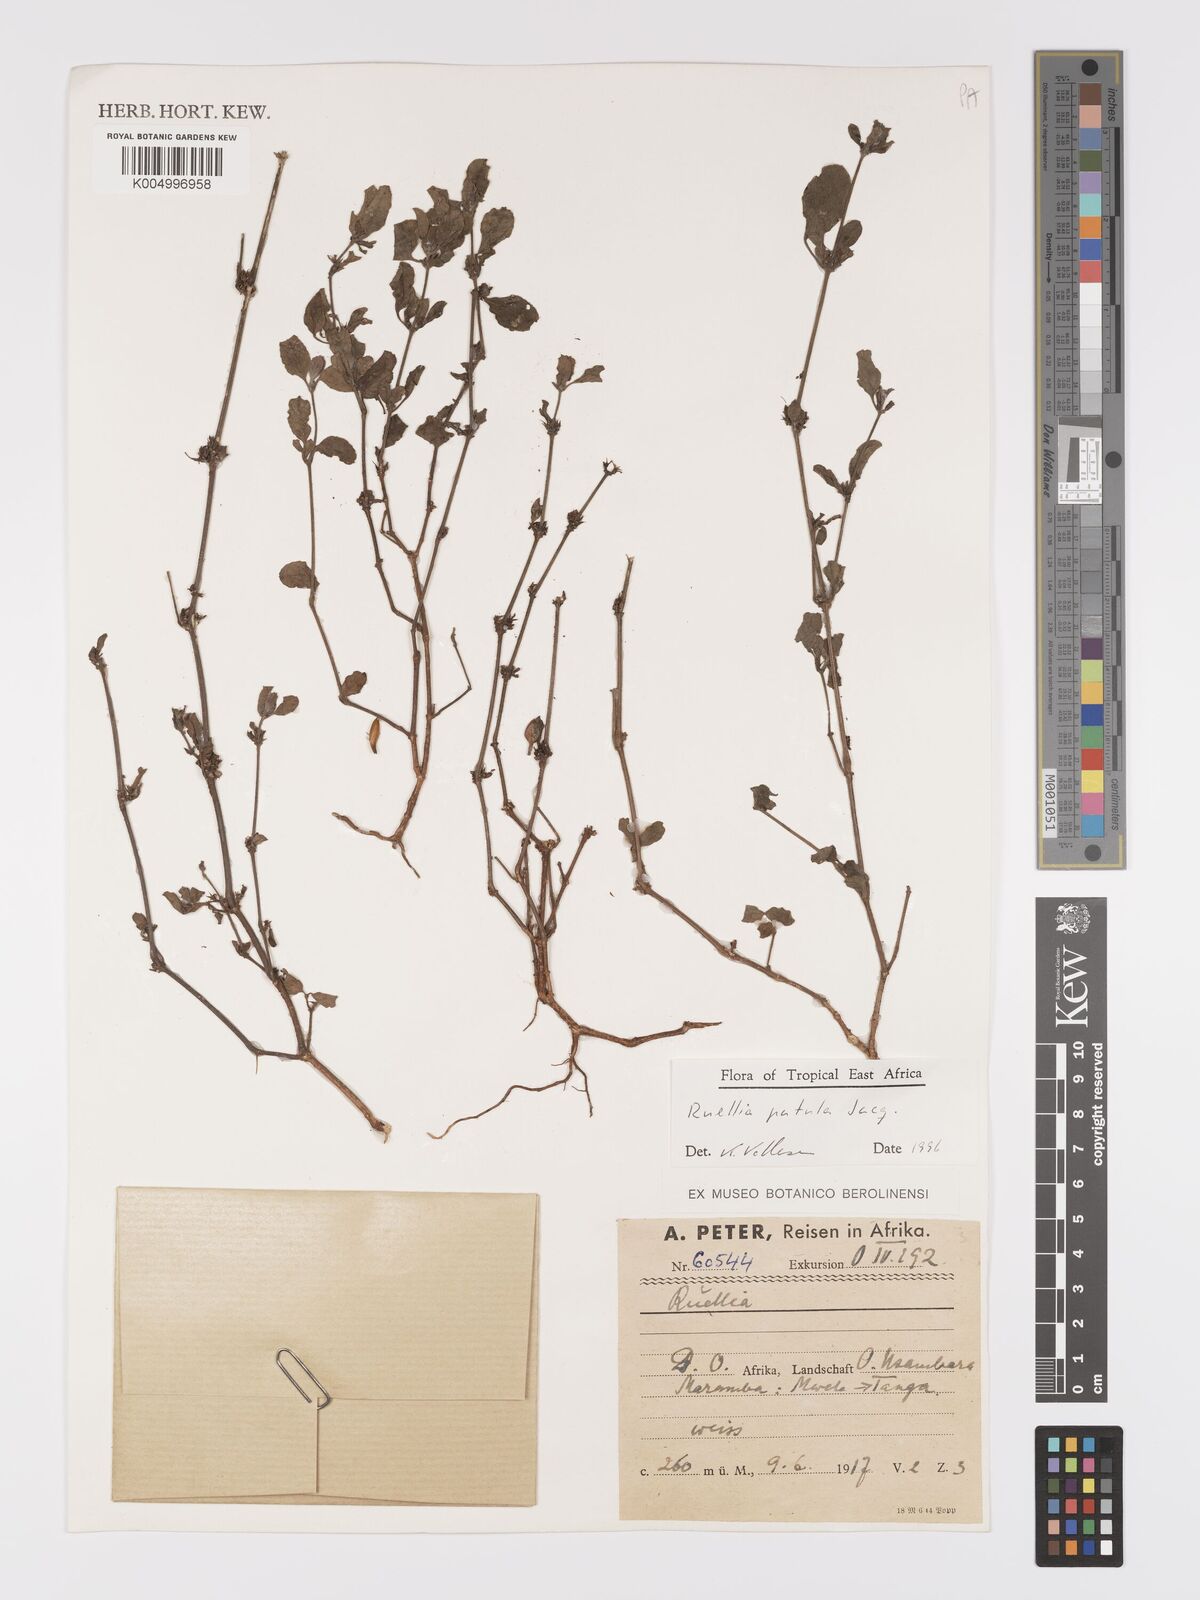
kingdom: Plantae
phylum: Tracheophyta
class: Magnoliopsida
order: Lamiales
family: Acanthaceae
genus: Ruellia
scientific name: Ruellia patula
